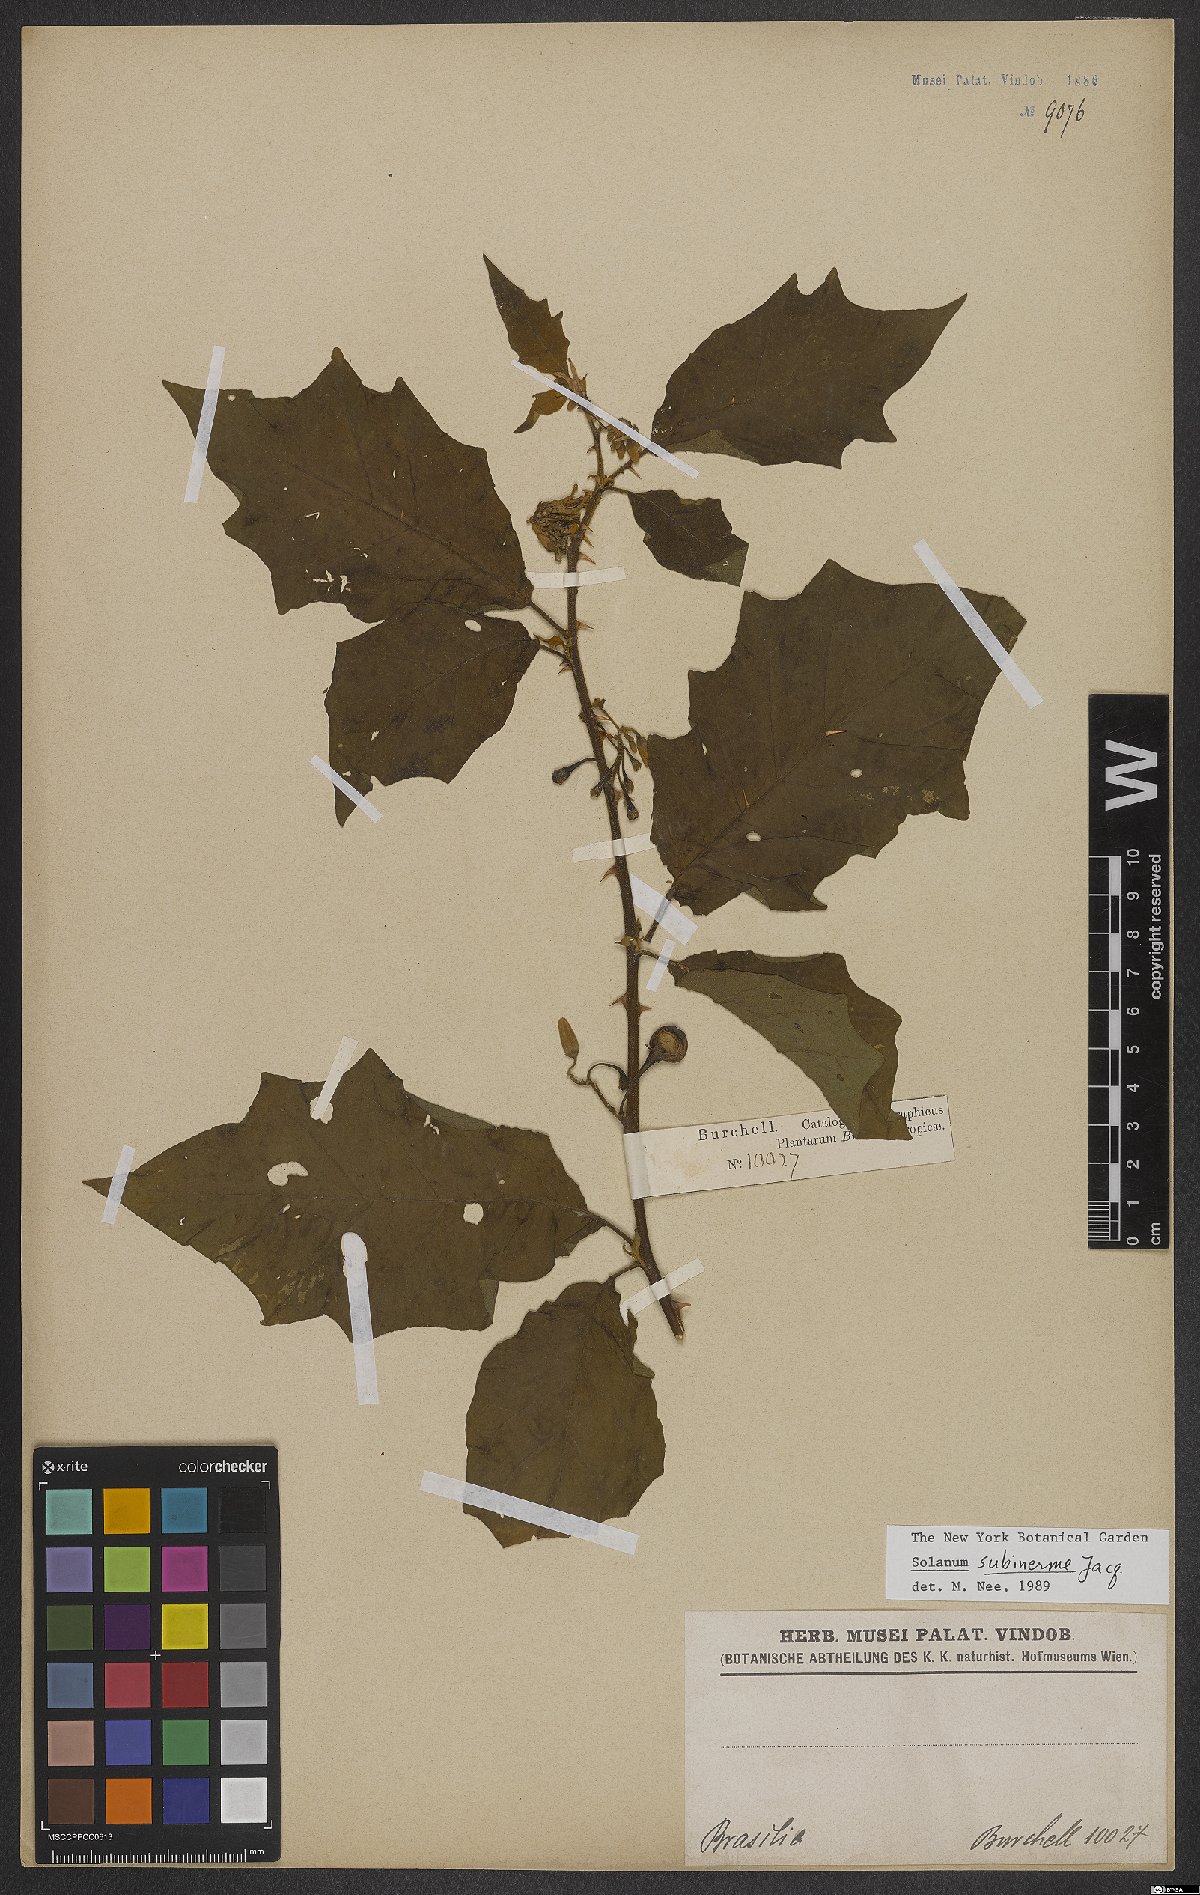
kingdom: Plantae
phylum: Tracheophyta
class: Magnoliopsida
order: Solanales
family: Solanaceae
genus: Solanum
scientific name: Solanum subinerme
